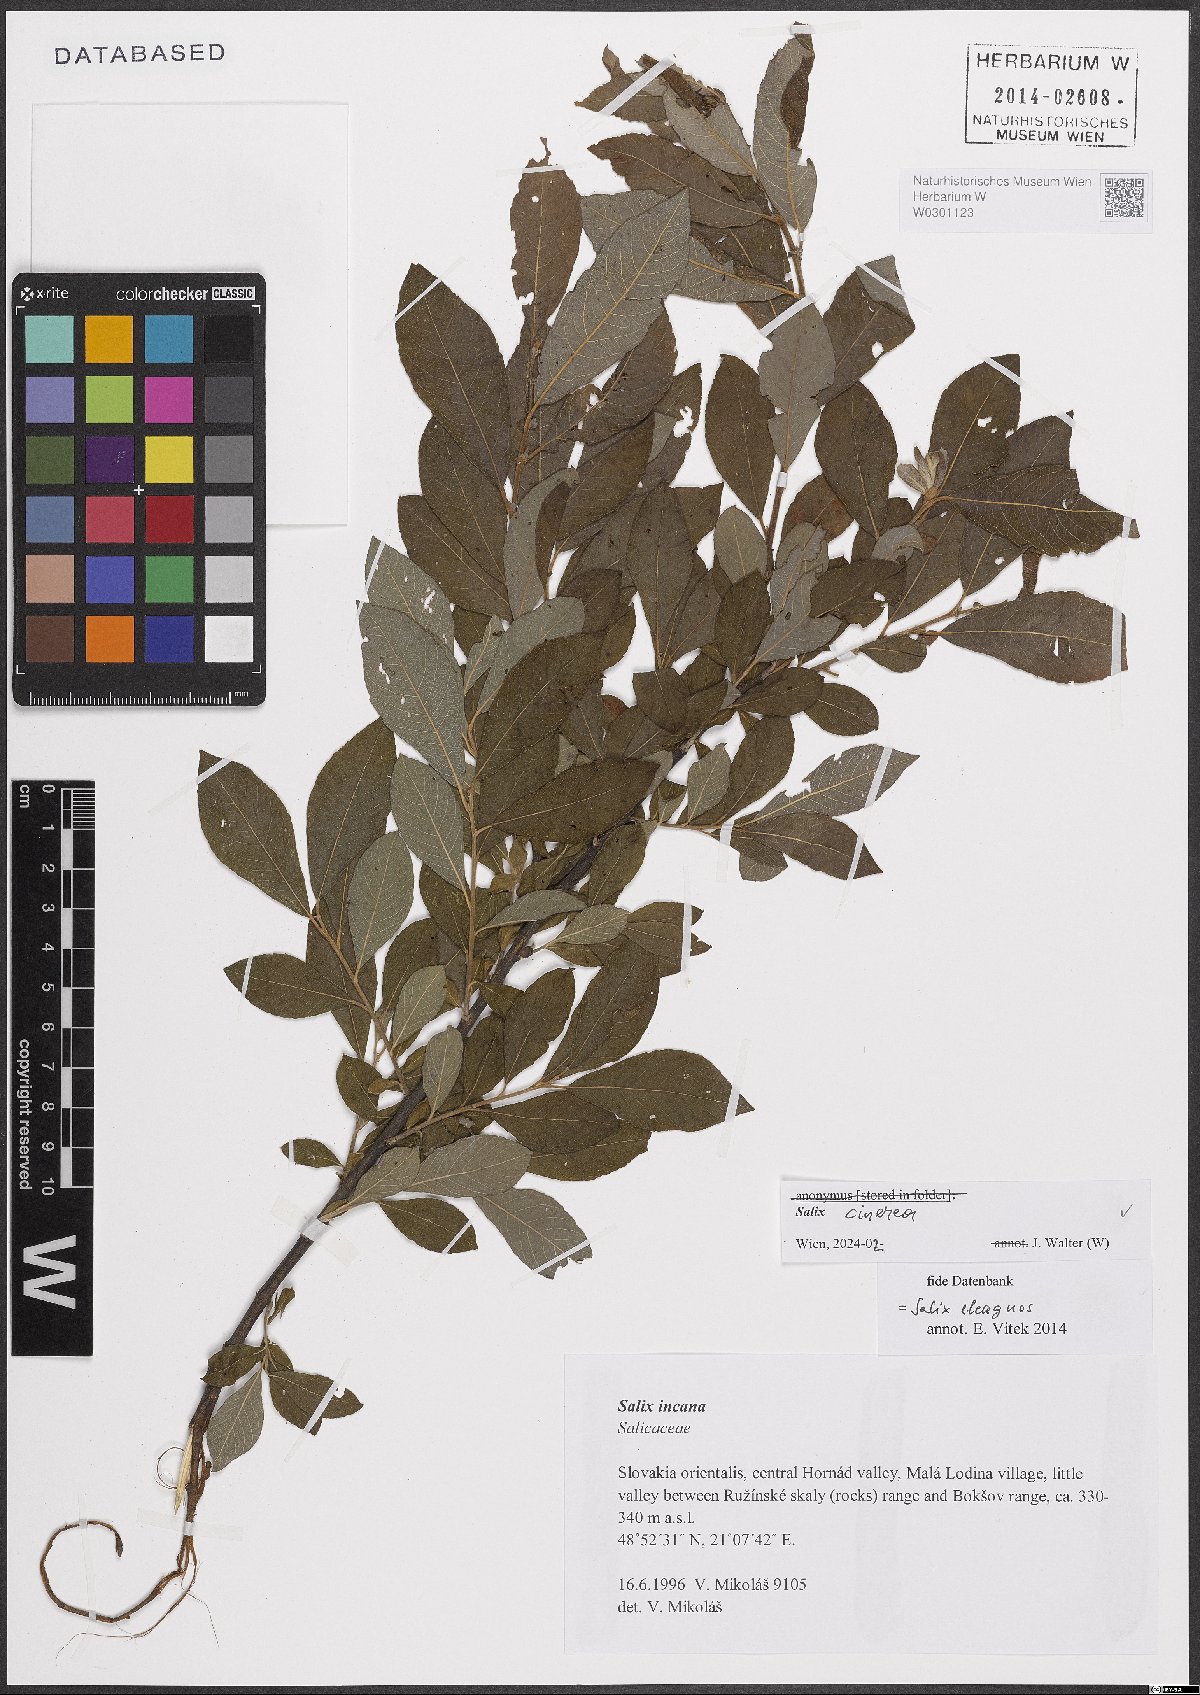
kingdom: Plantae
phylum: Tracheophyta
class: Magnoliopsida
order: Malpighiales
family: Salicaceae
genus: Salix
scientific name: Salix cinerea
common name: Common sallow
